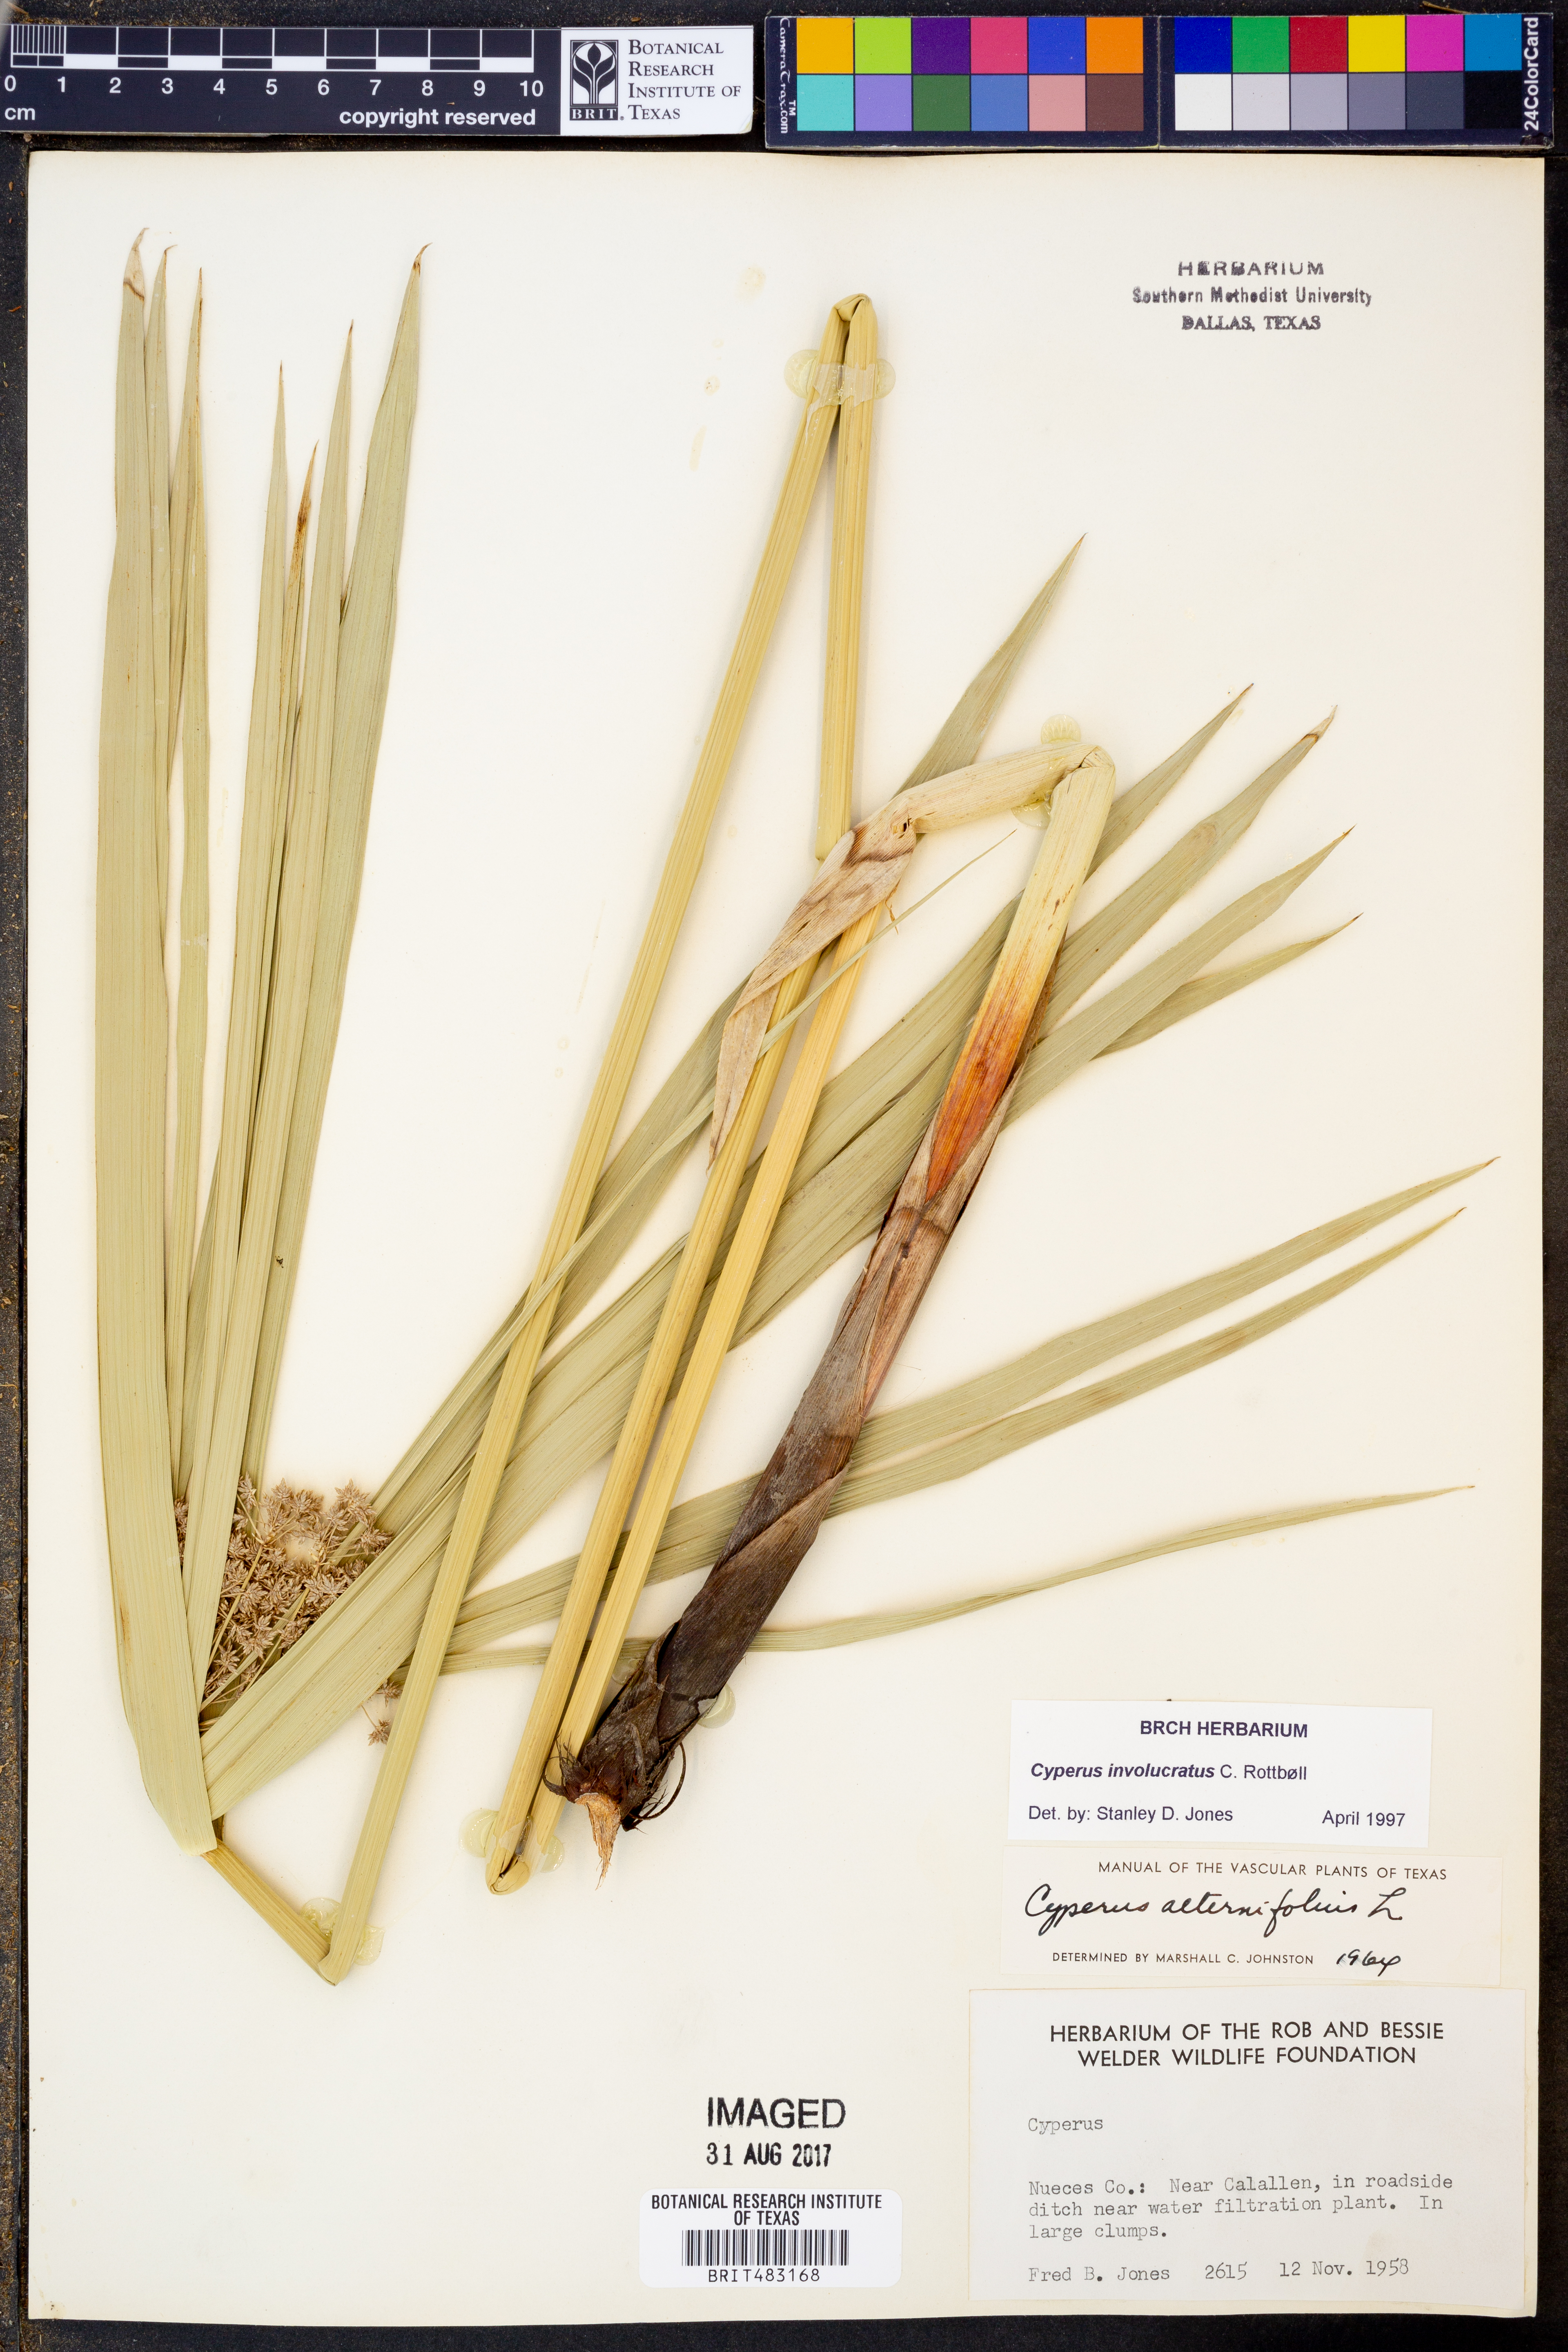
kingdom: Plantae
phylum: Tracheophyta
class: Liliopsida
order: Poales
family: Cyperaceae
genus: Cyperus
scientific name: Cyperus alternifolius
